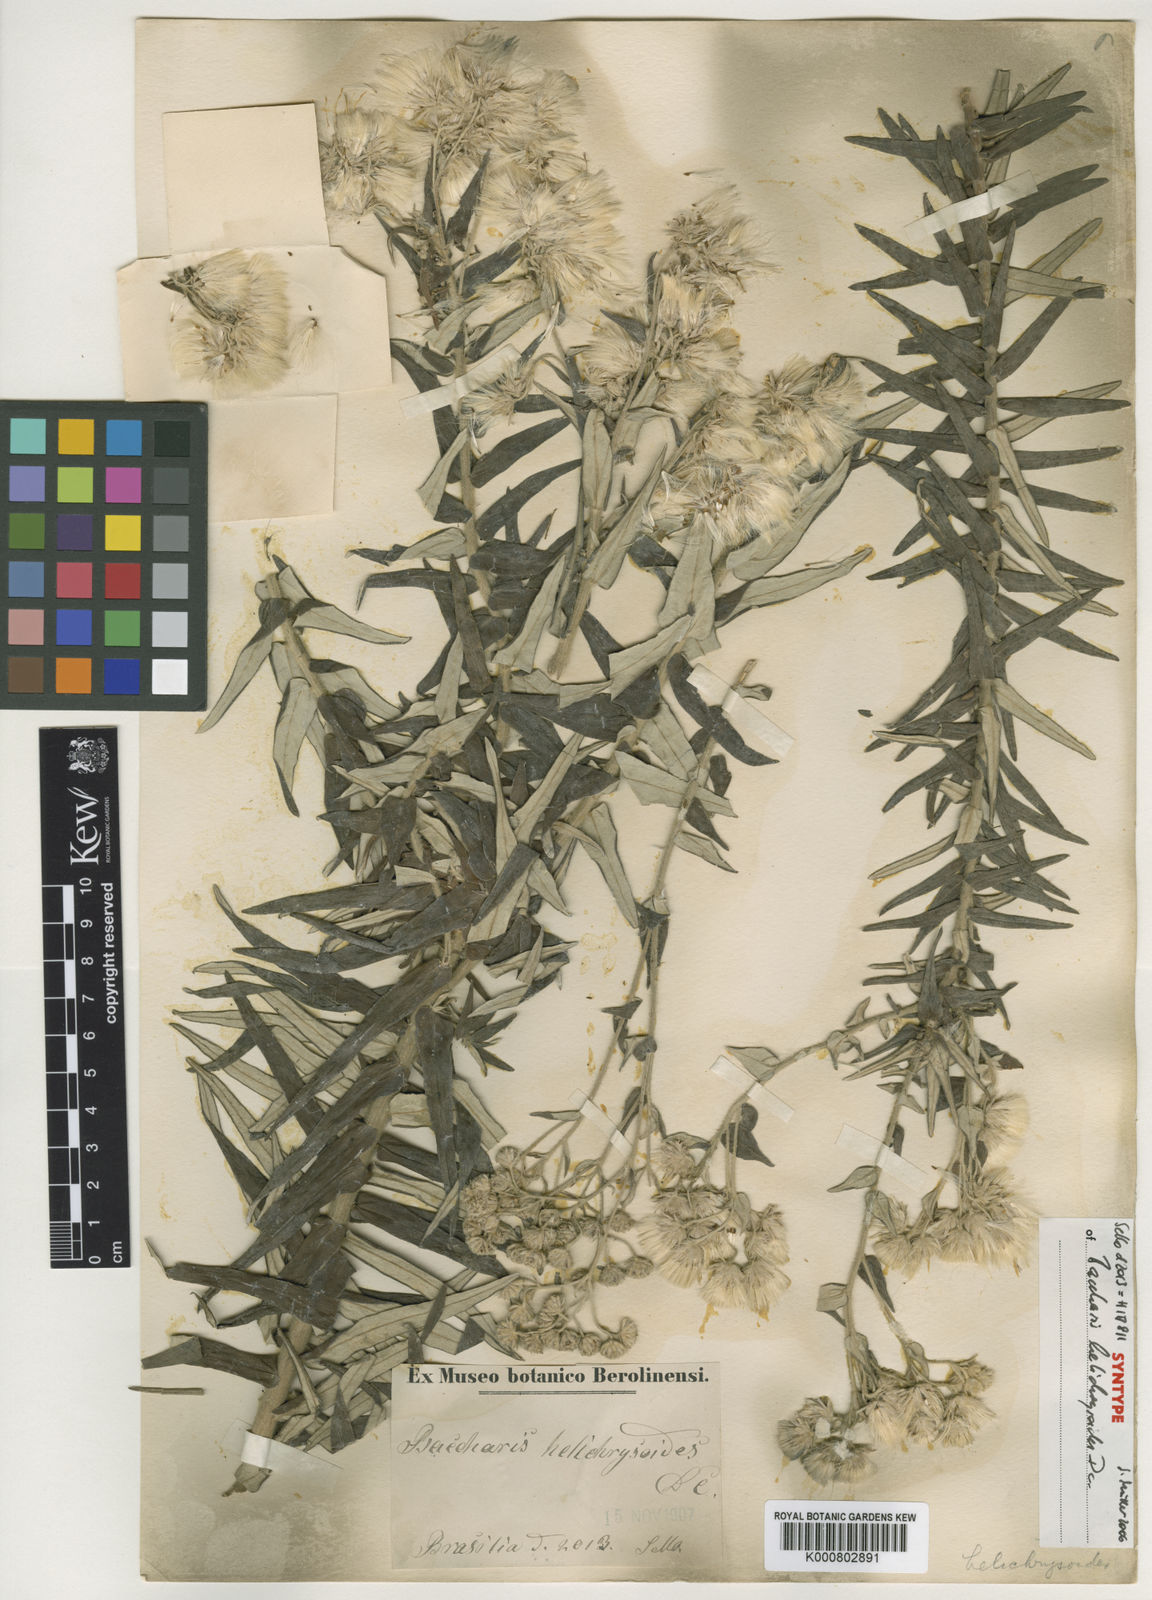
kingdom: Plantae
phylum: Tracheophyta
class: Magnoliopsida
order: Asterales
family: Asteraceae
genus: Baccharis
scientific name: Baccharis helichrysoides
